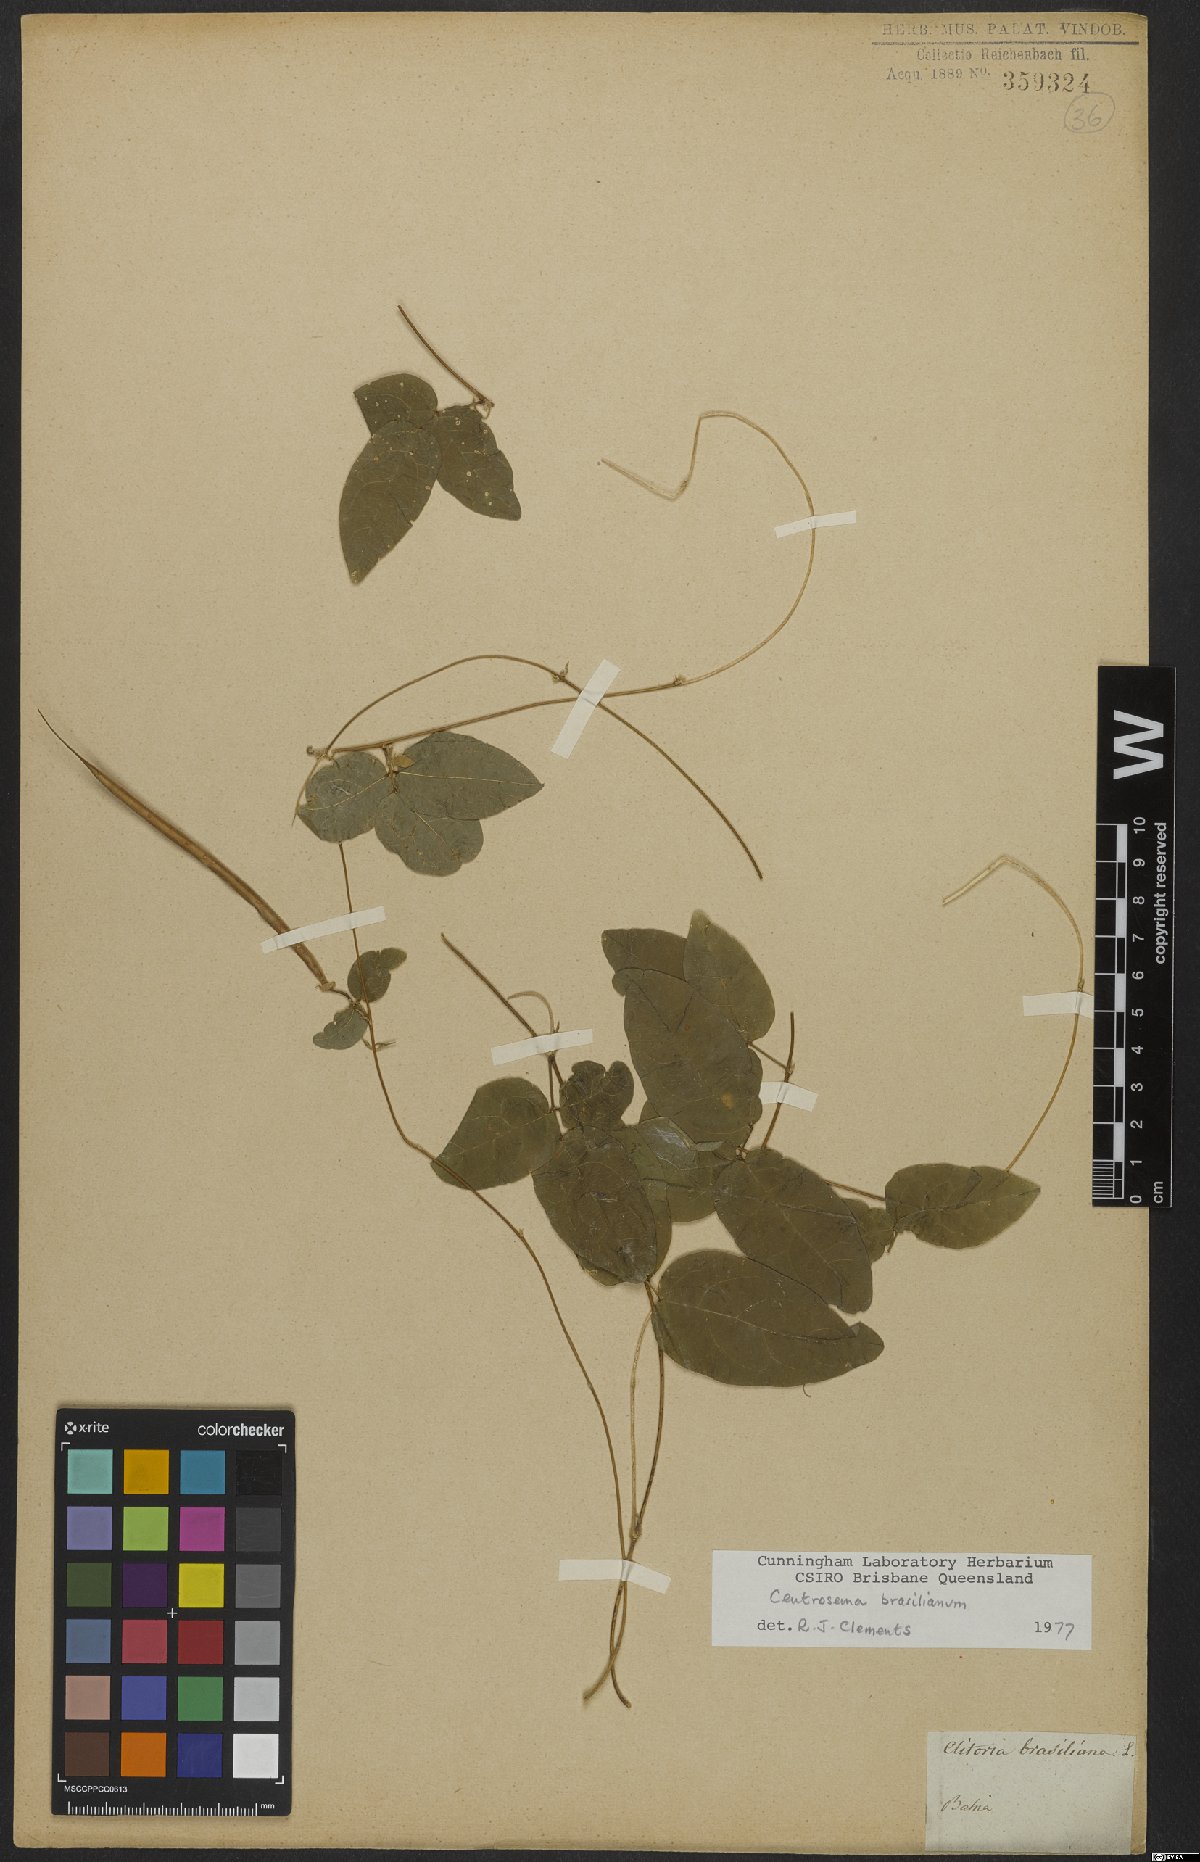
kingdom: Plantae
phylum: Tracheophyta
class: Magnoliopsida
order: Fabales
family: Fabaceae
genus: Centrosema
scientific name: Centrosema brasilianum
